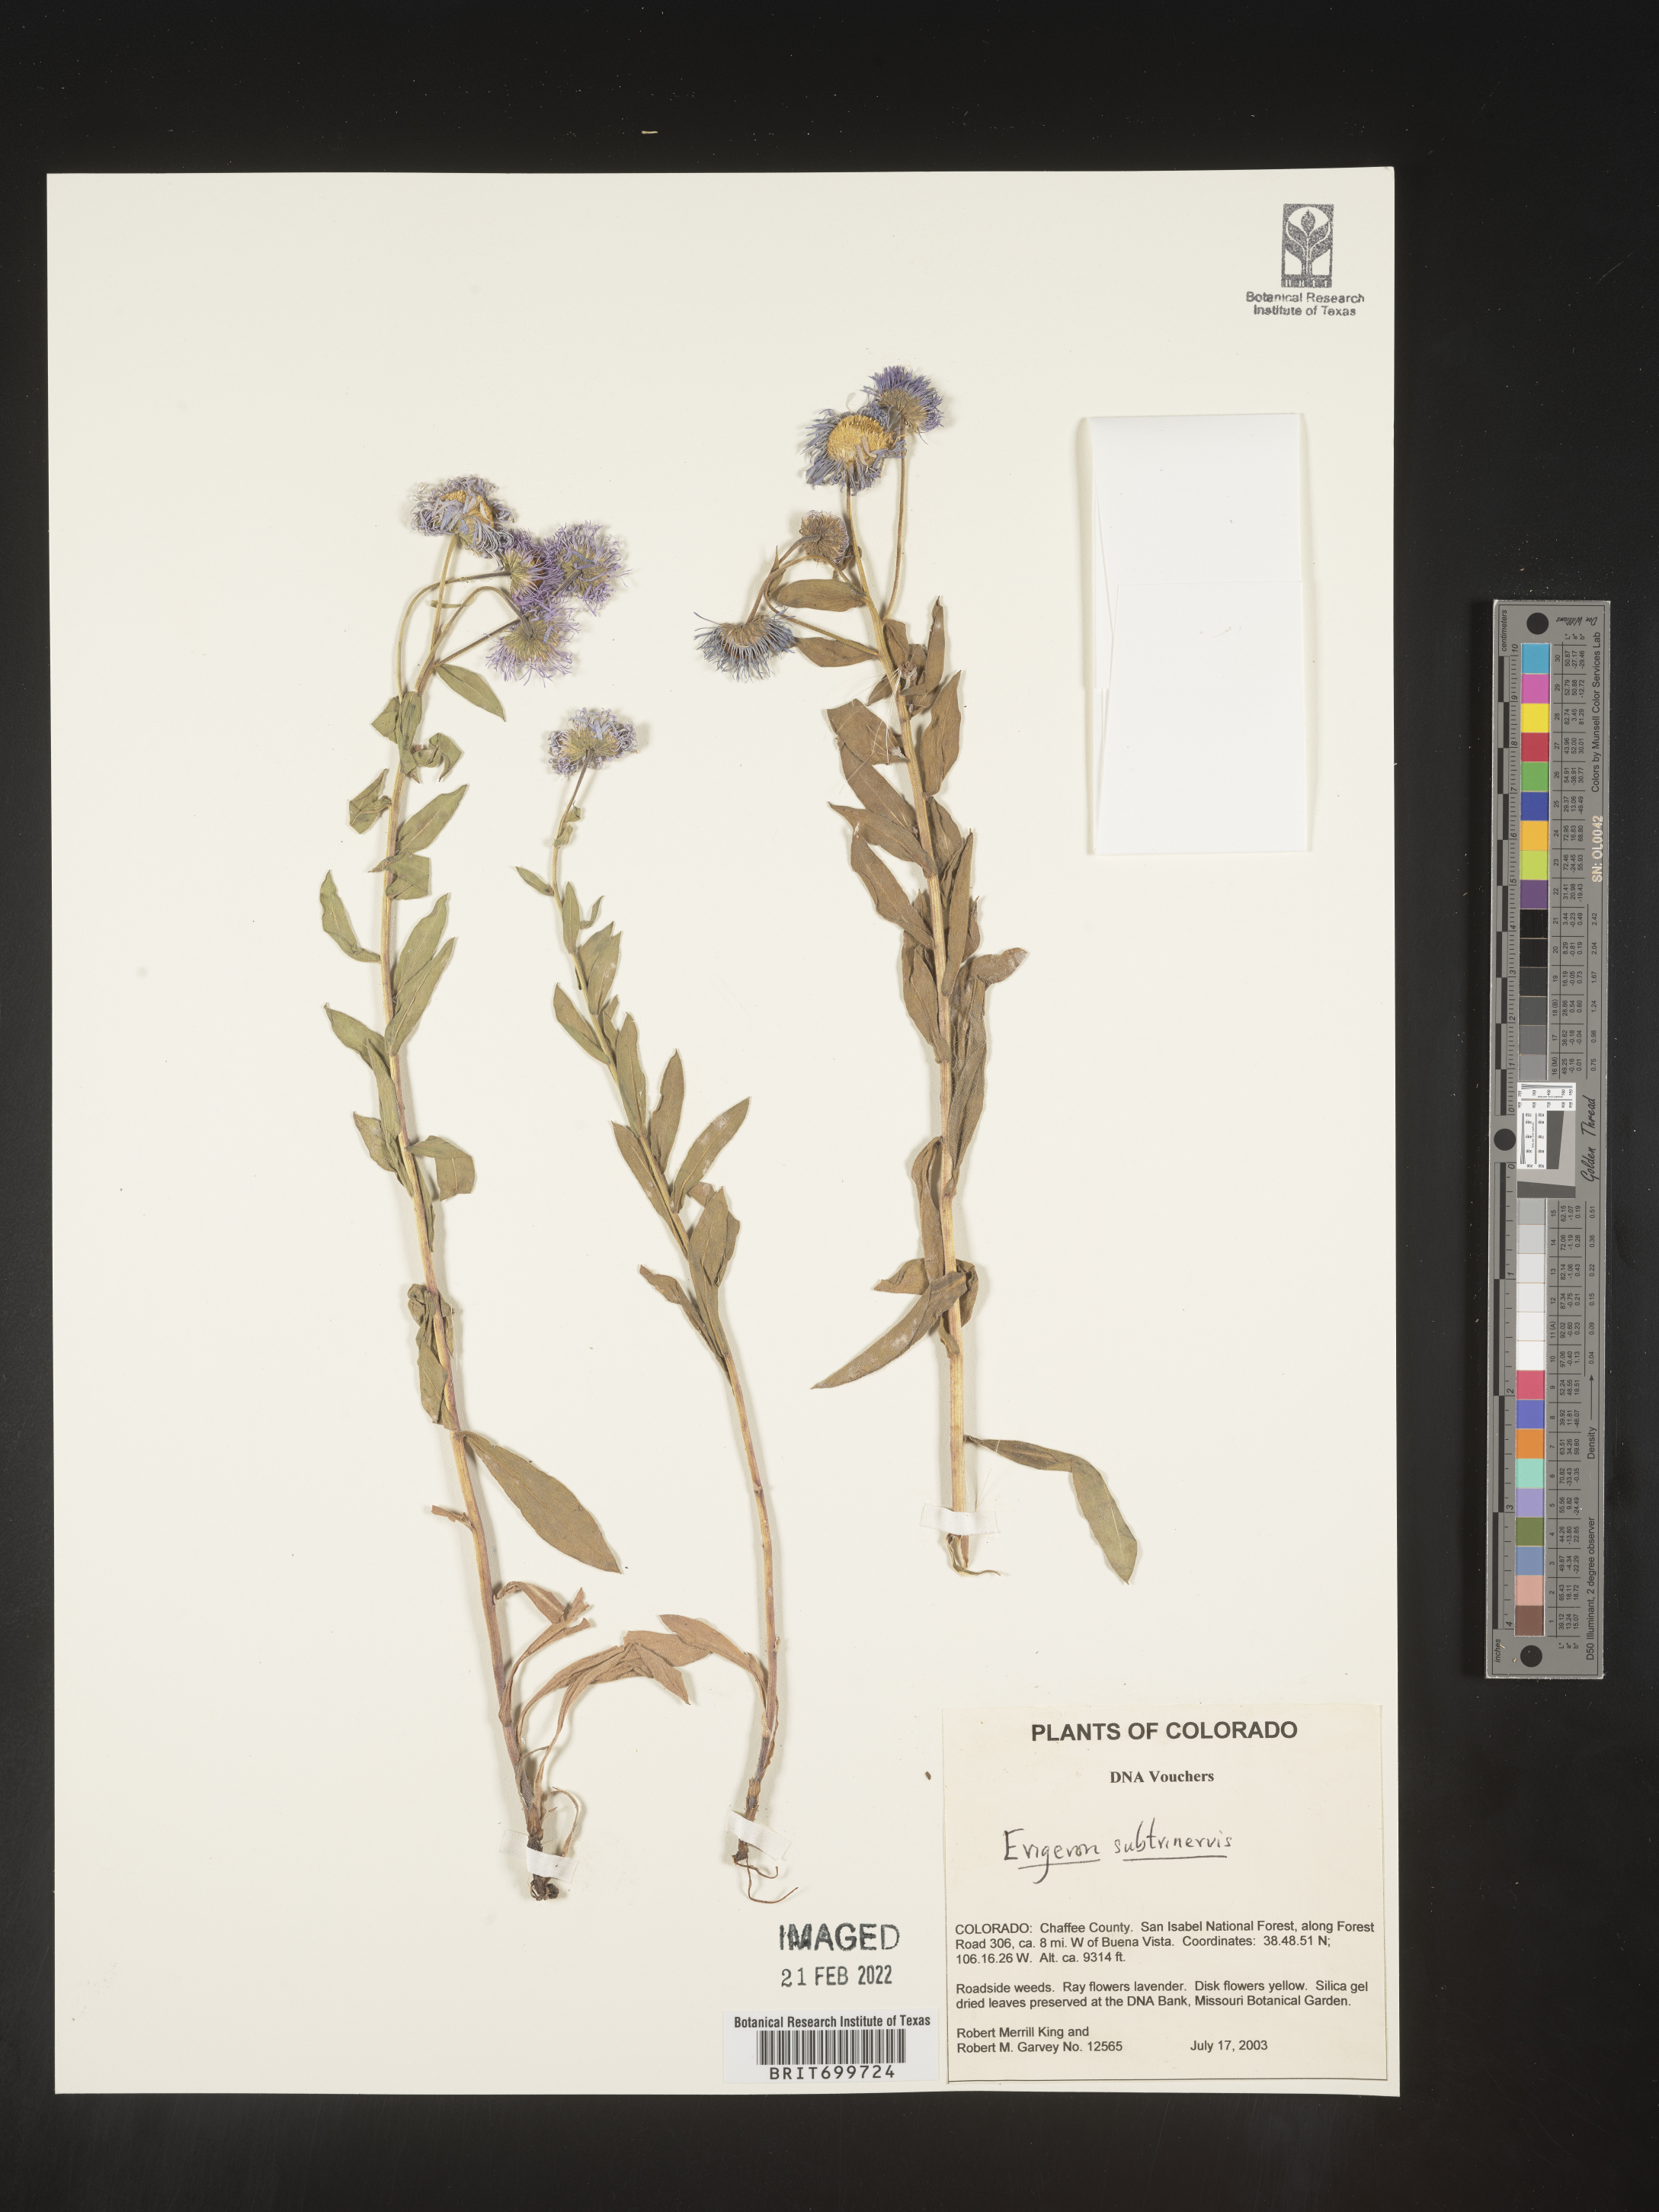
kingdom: Plantae
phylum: Tracheophyta
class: Magnoliopsida
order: Asterales
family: Asteraceae
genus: Erigeron
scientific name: Erigeron subtrinervis
